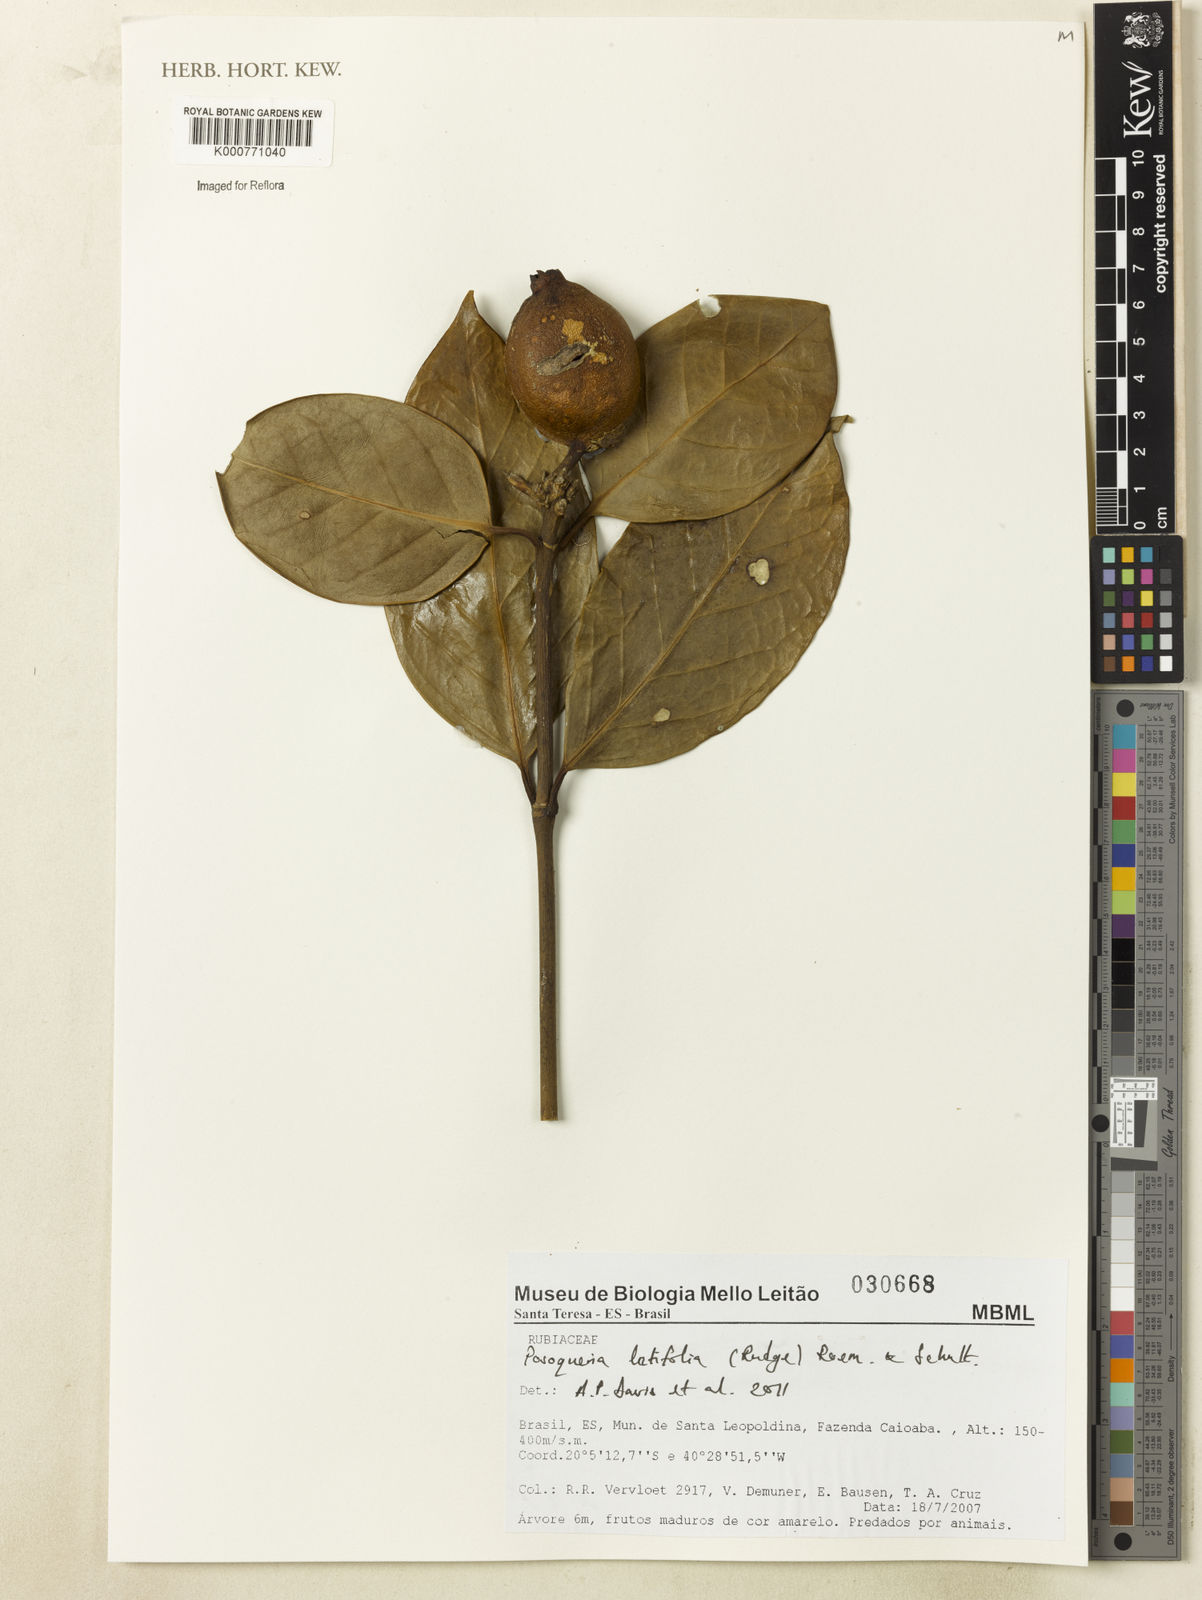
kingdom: Plantae
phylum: Tracheophyta
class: Magnoliopsida
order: Gentianales
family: Rubiaceae
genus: Posoqueria
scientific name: Posoqueria latifolia
